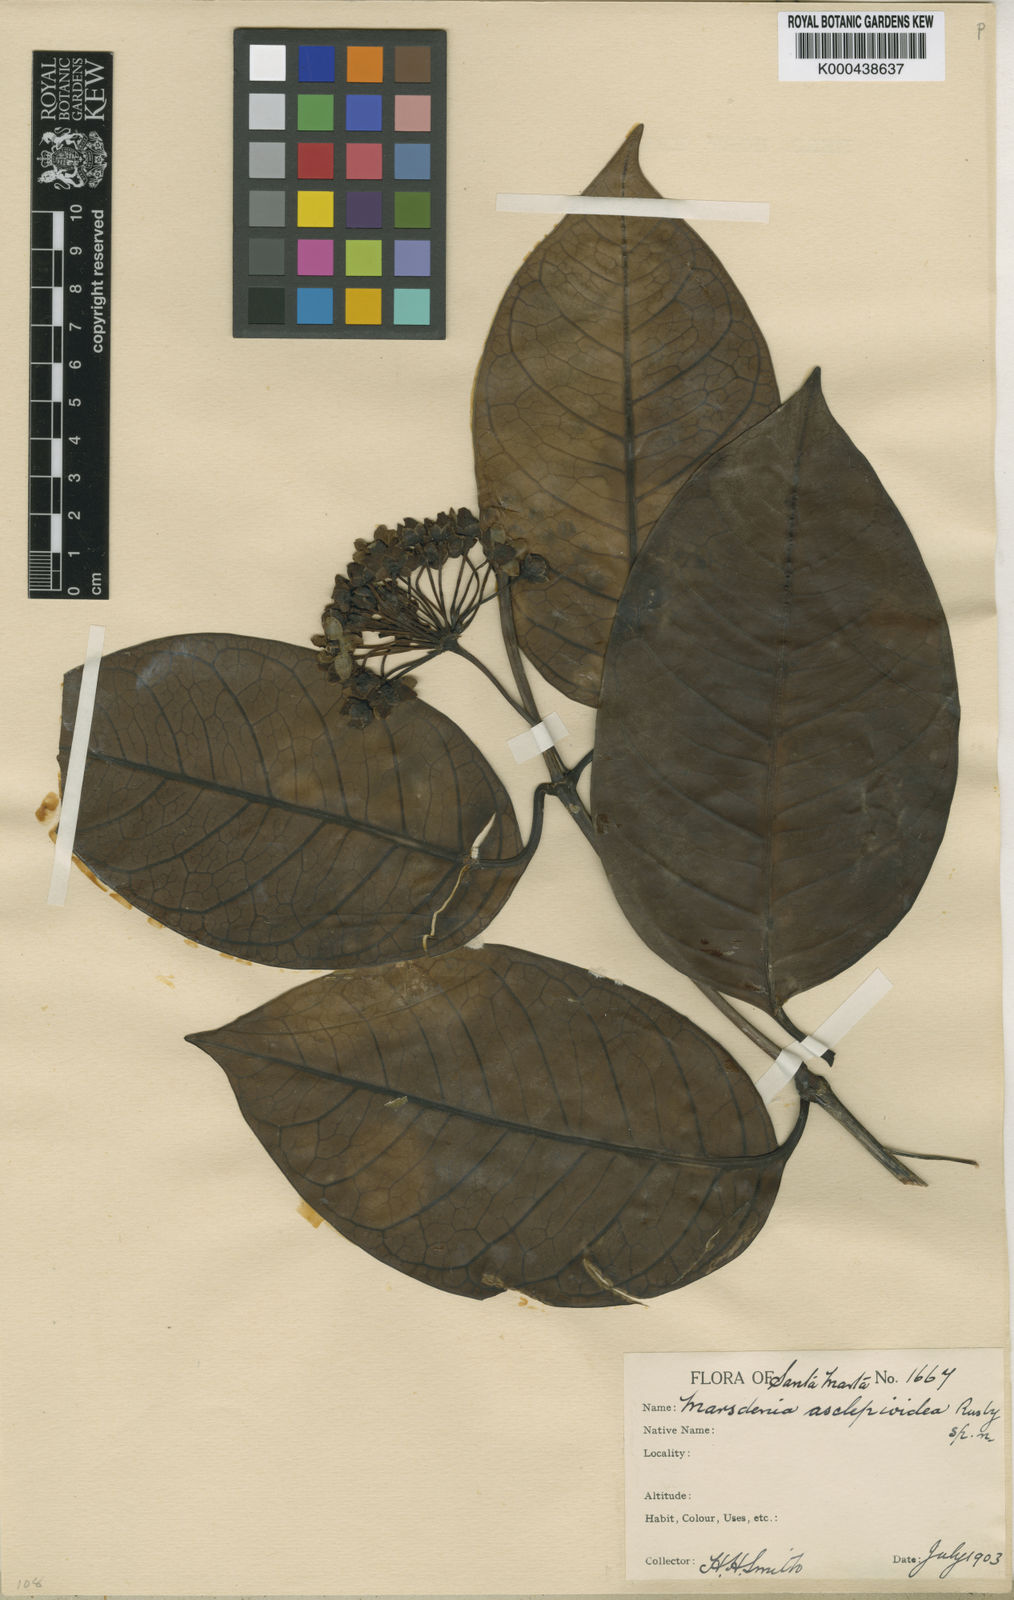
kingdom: Plantae
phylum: Tracheophyta
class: Magnoliopsida
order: Gentianales
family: Apocynaceae
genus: Ruehssia
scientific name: Ruehssia asclepioidea
